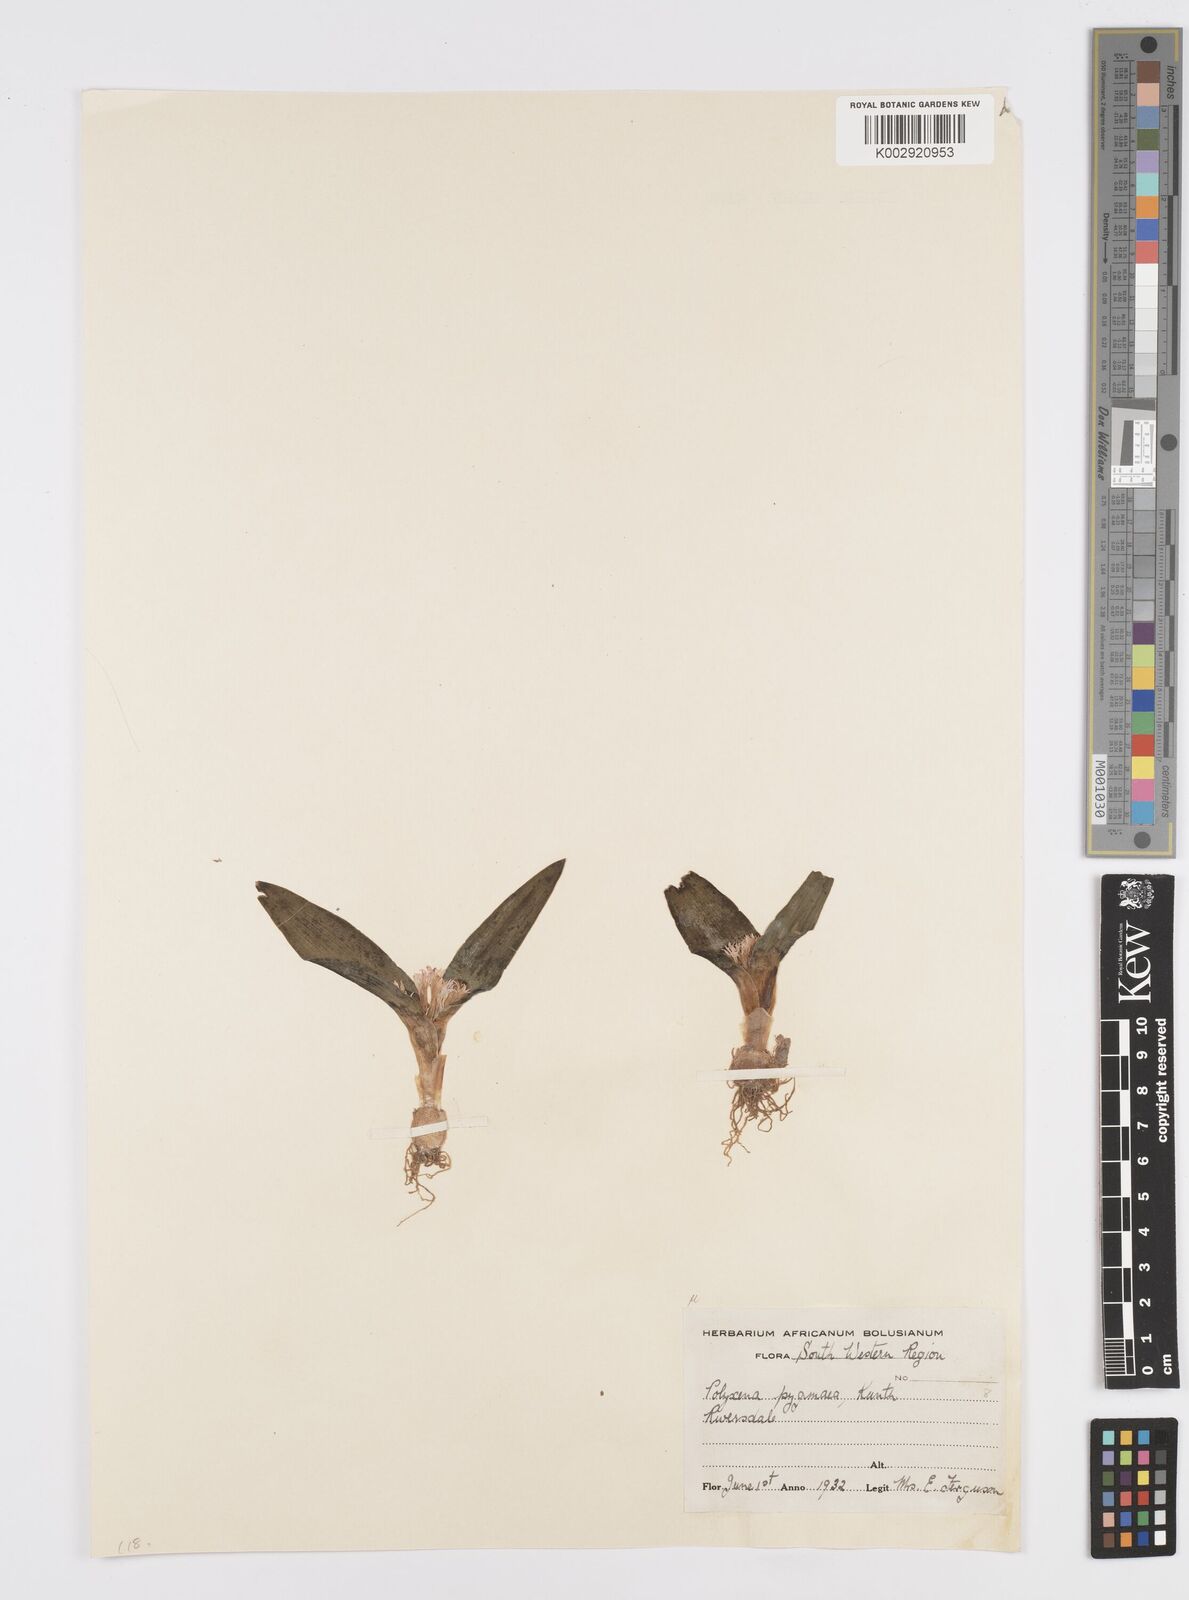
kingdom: Plantae
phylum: Tracheophyta
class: Liliopsida
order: Asparagales
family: Asparagaceae
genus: Lachenalia
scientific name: Lachenalia ensifolia
